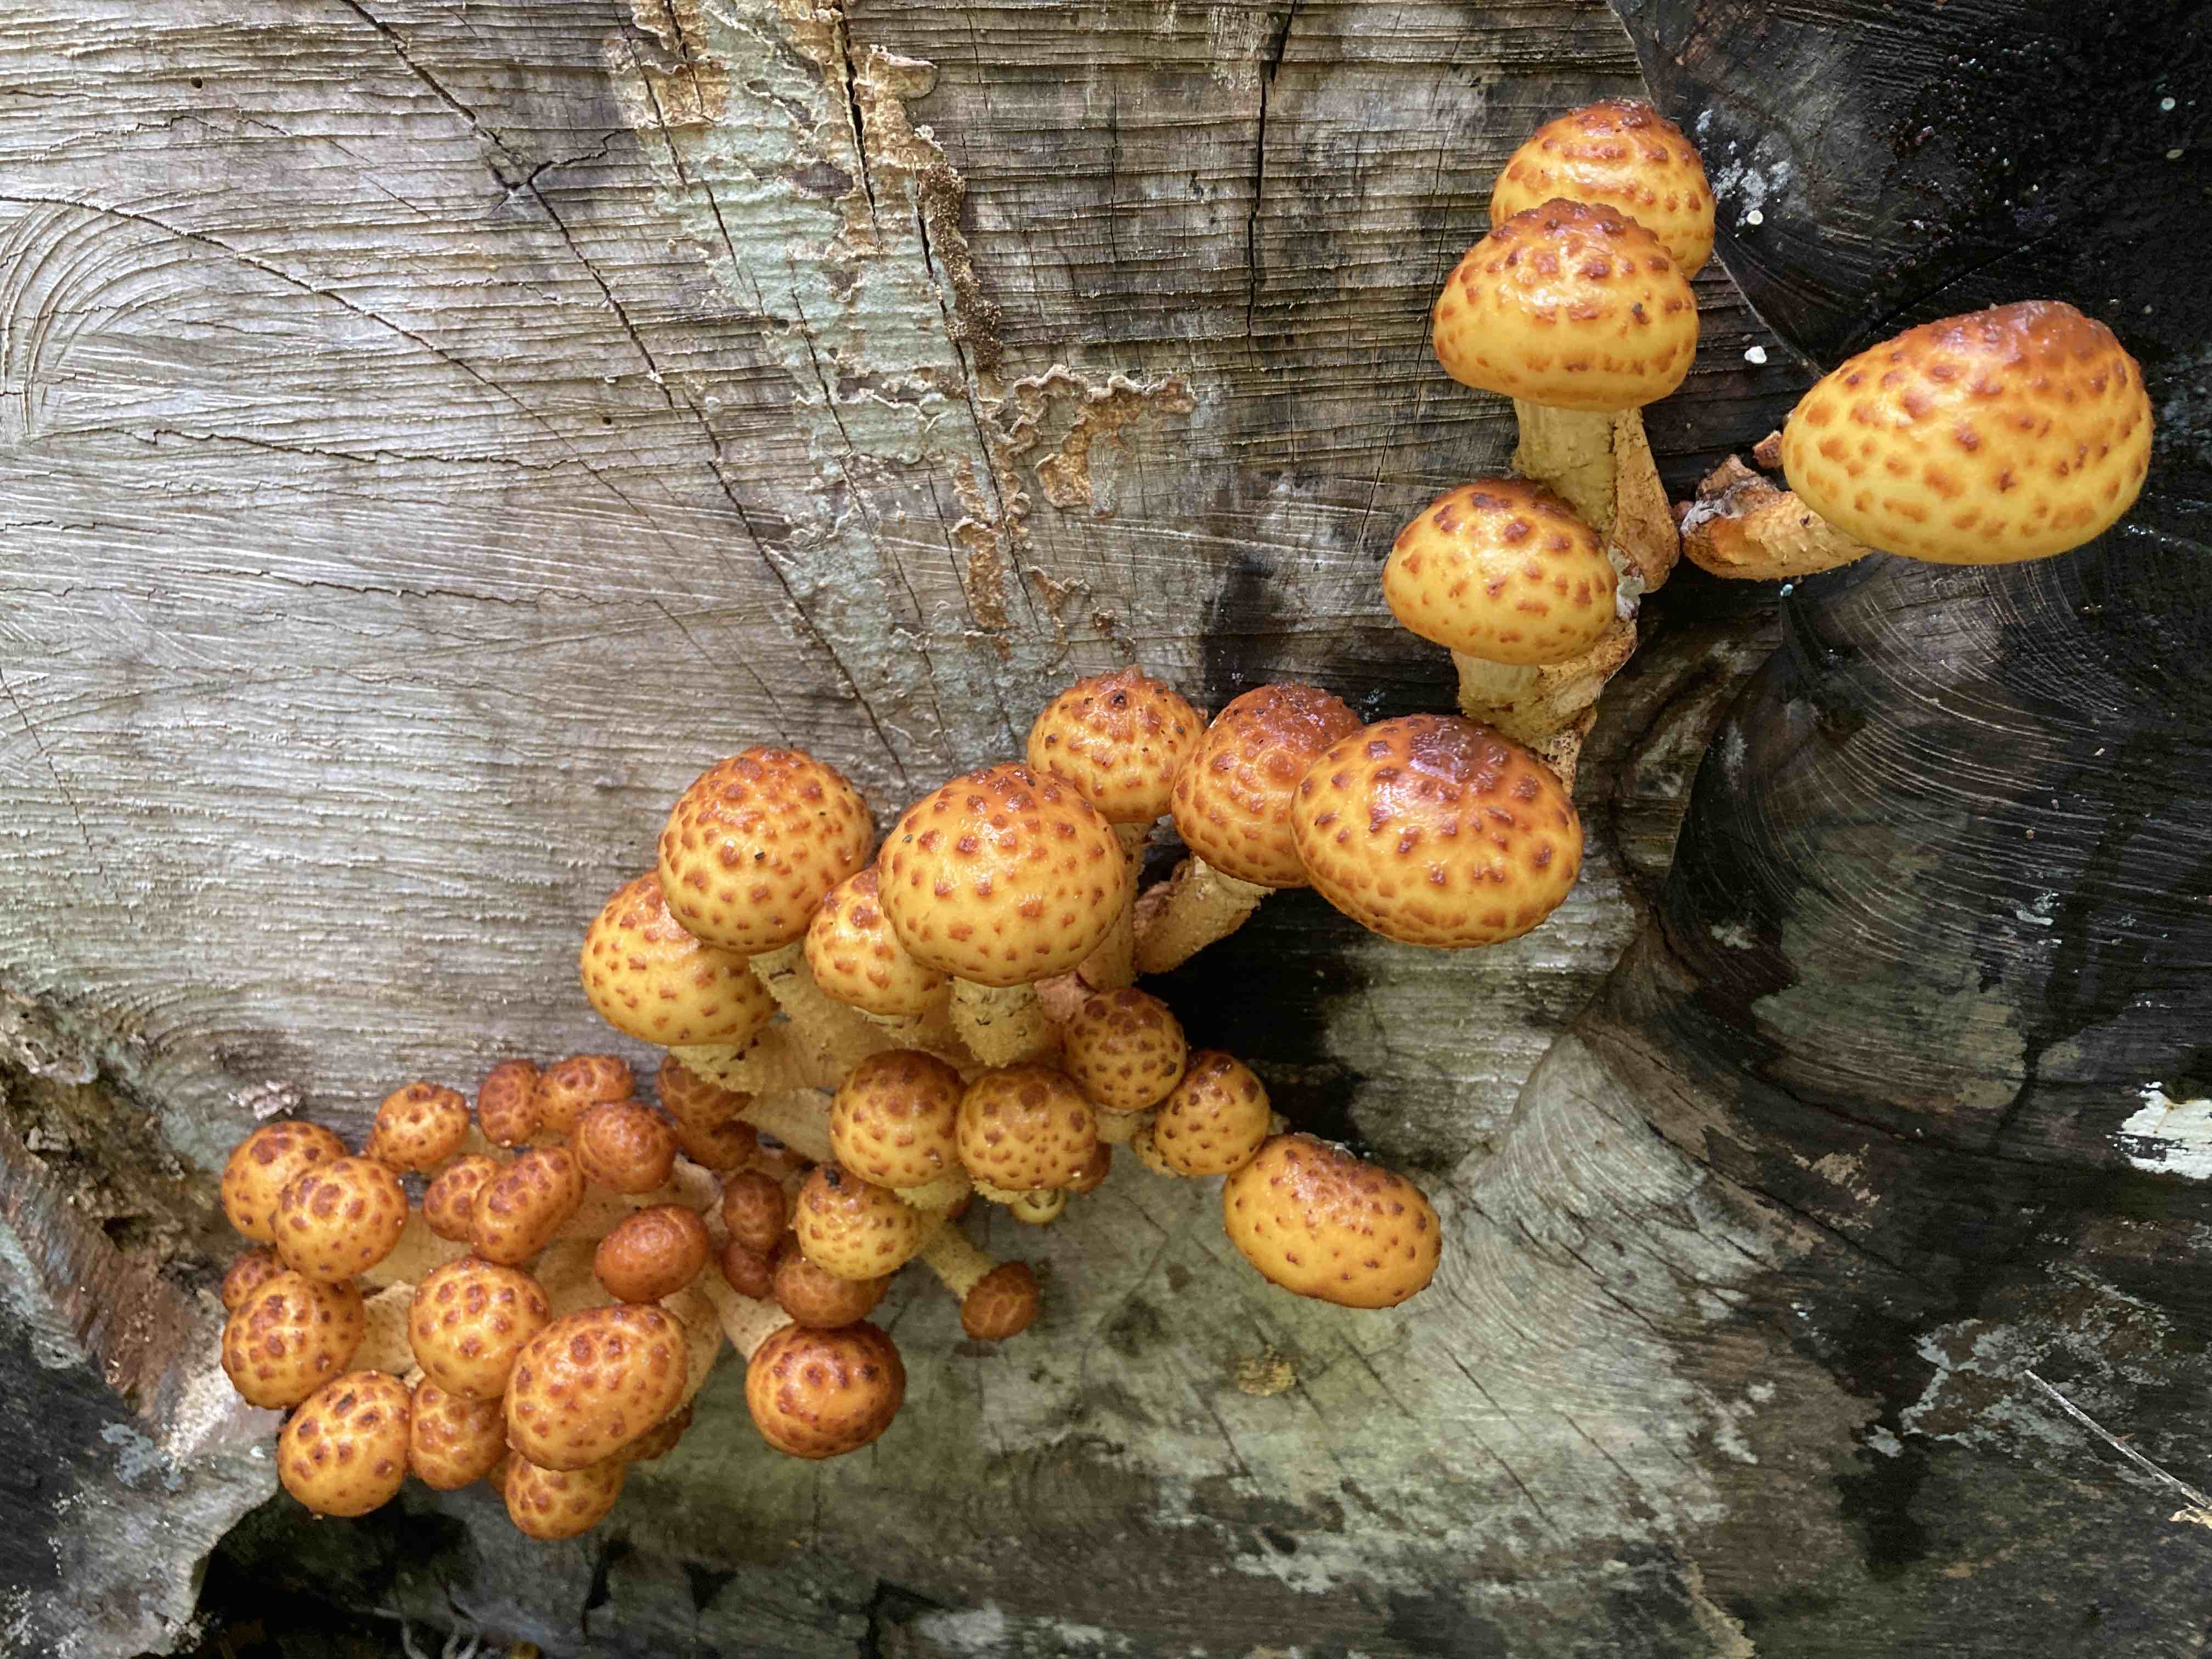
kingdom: Fungi
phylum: Basidiomycota
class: Agaricomycetes
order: Agaricales
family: Strophariaceae
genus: Pholiota
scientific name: Pholiota adiposa
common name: højtsiddende skælhat
